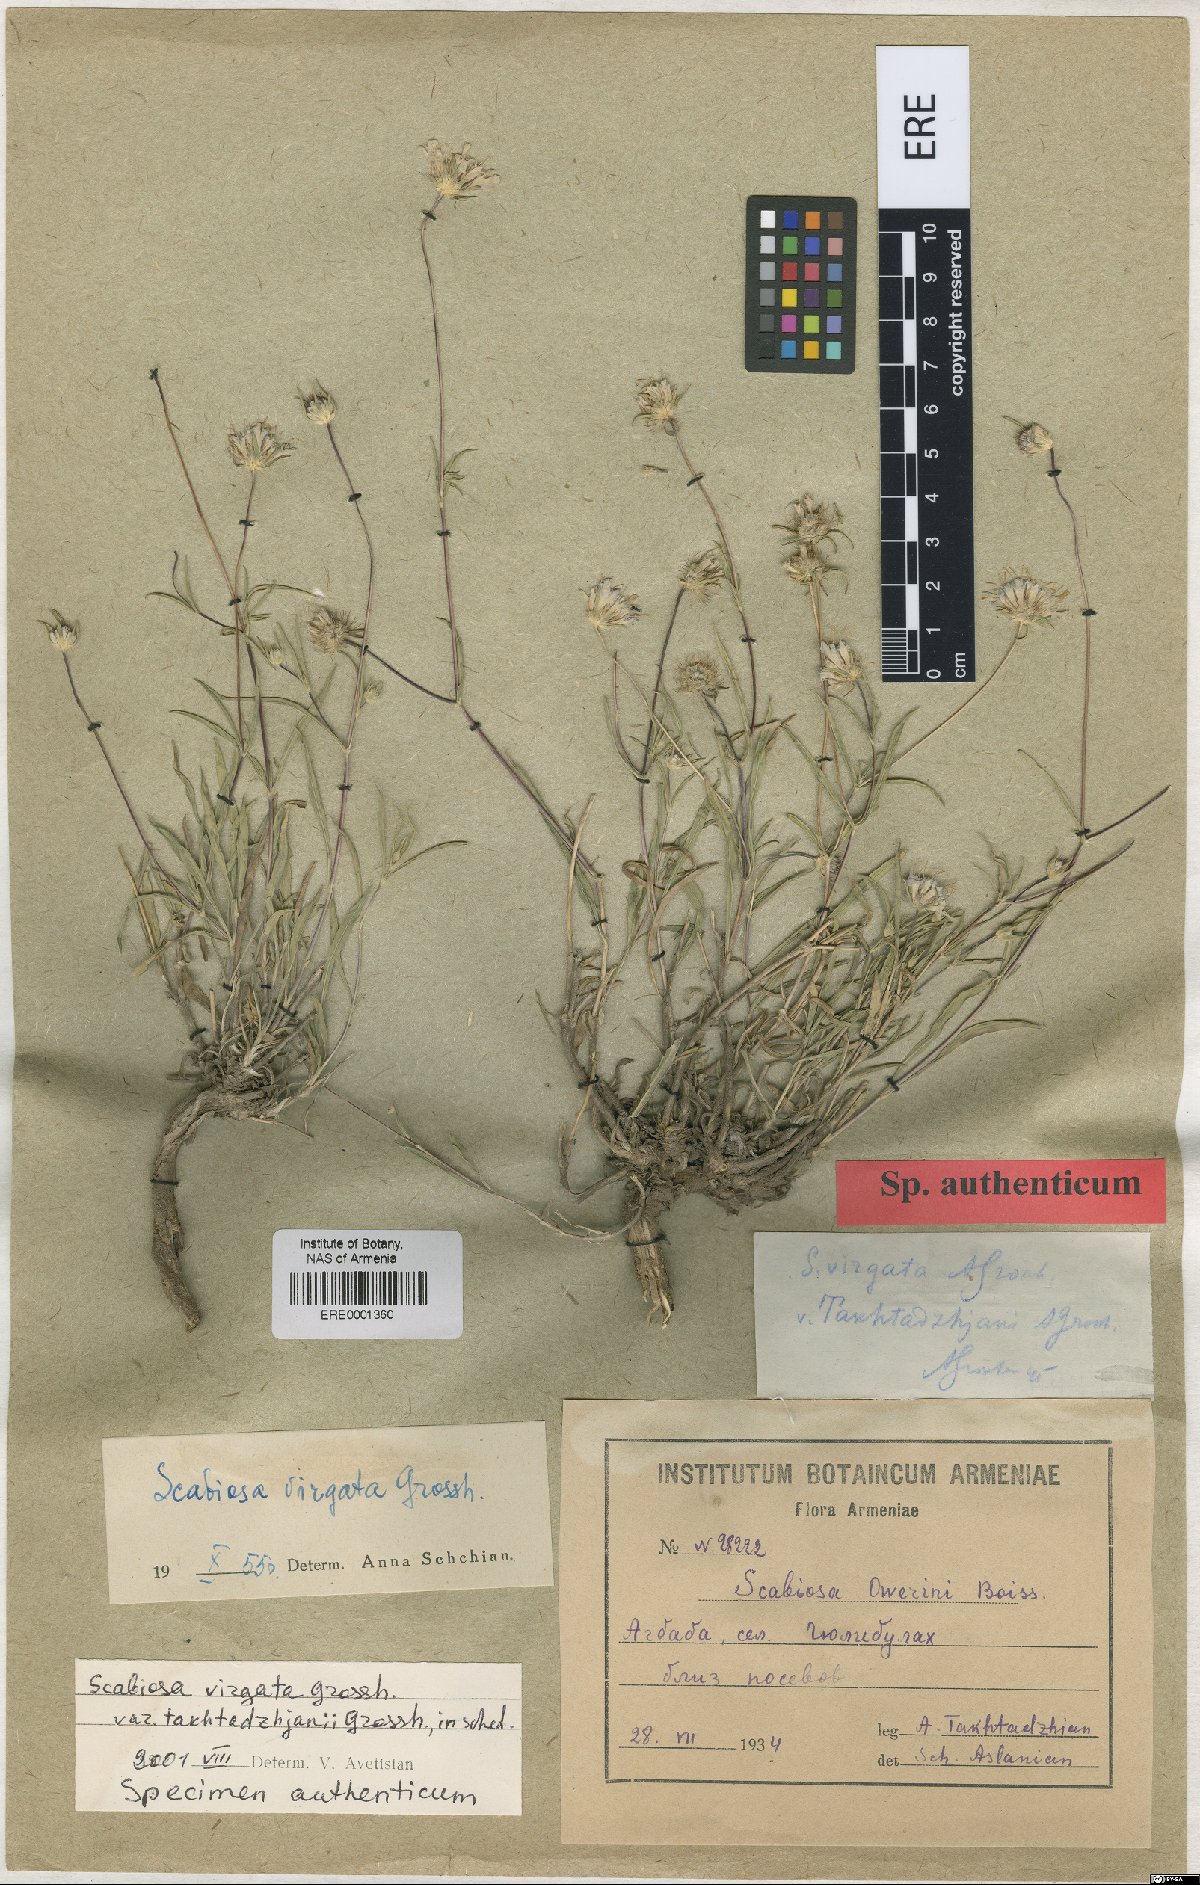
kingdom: Plantae
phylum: Tracheophyta
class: Magnoliopsida
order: Dipsacales
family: Caprifoliaceae
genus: Lomelosia
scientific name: Lomelosia argentea
